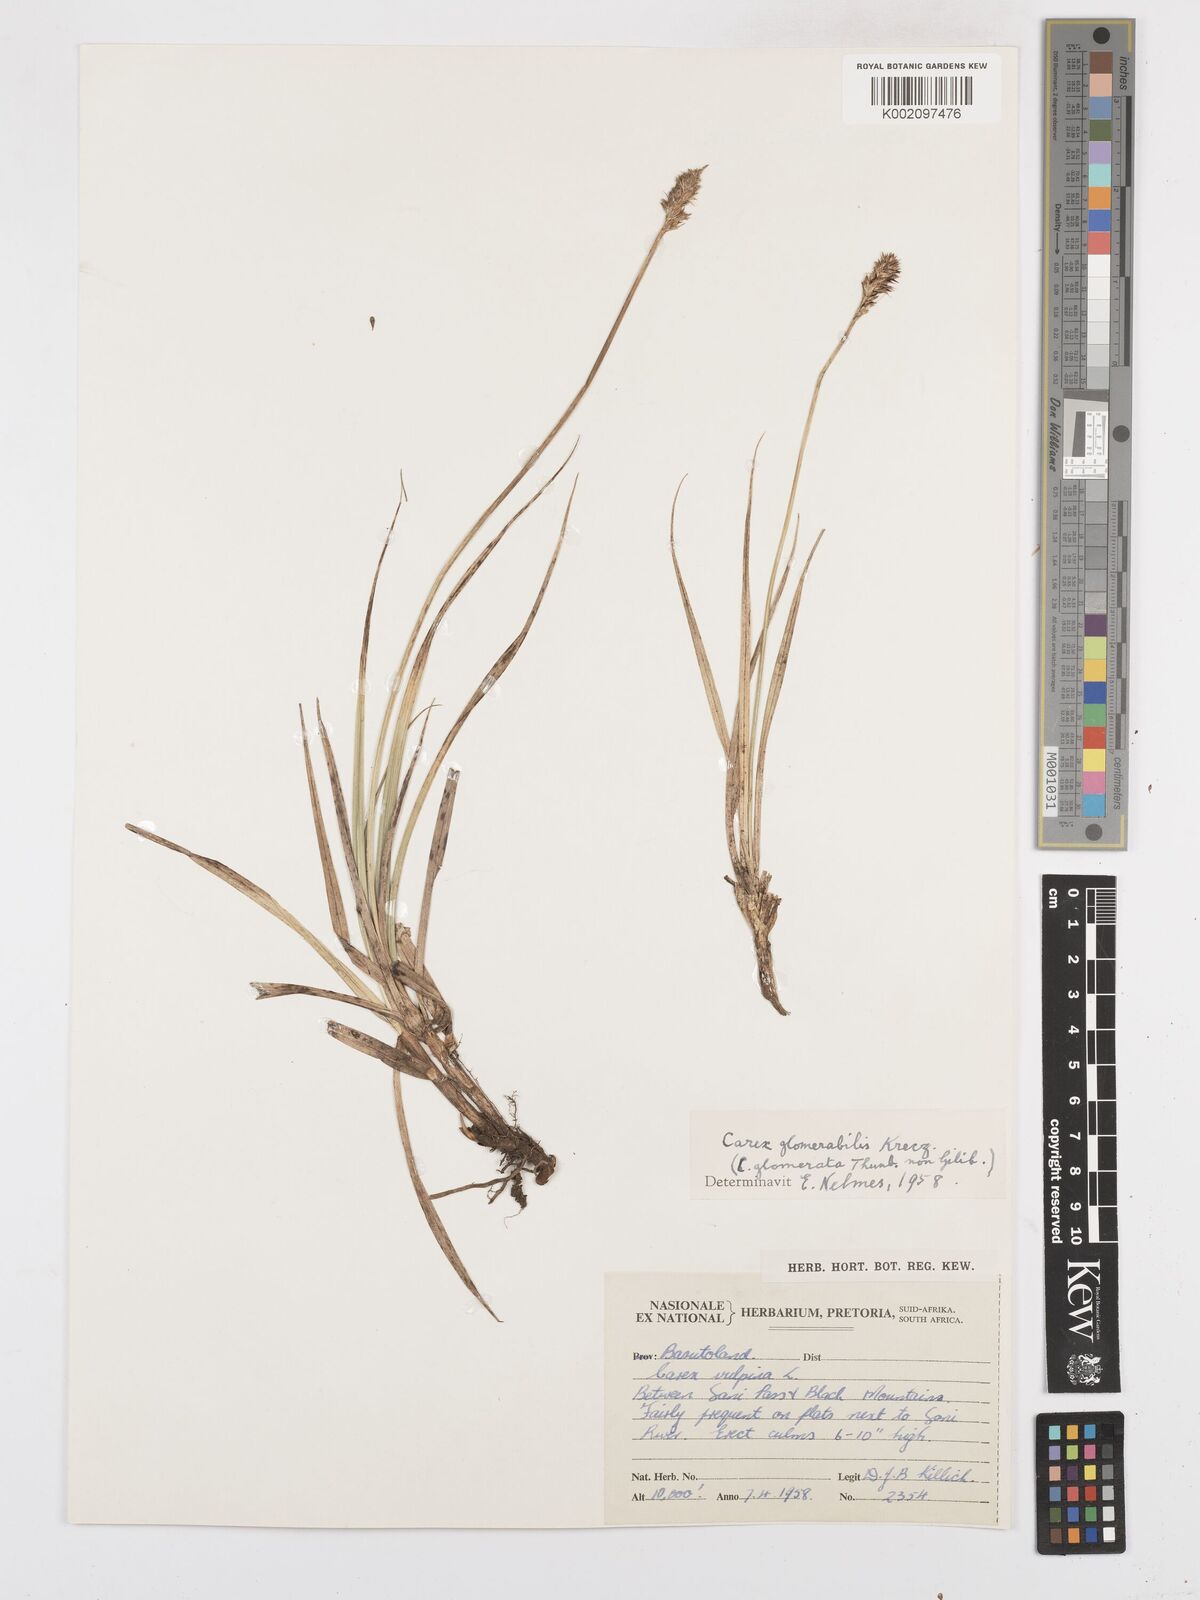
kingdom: Plantae
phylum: Tracheophyta
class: Liliopsida
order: Poales
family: Cyperaceae
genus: Carex
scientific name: Carex glomerata
